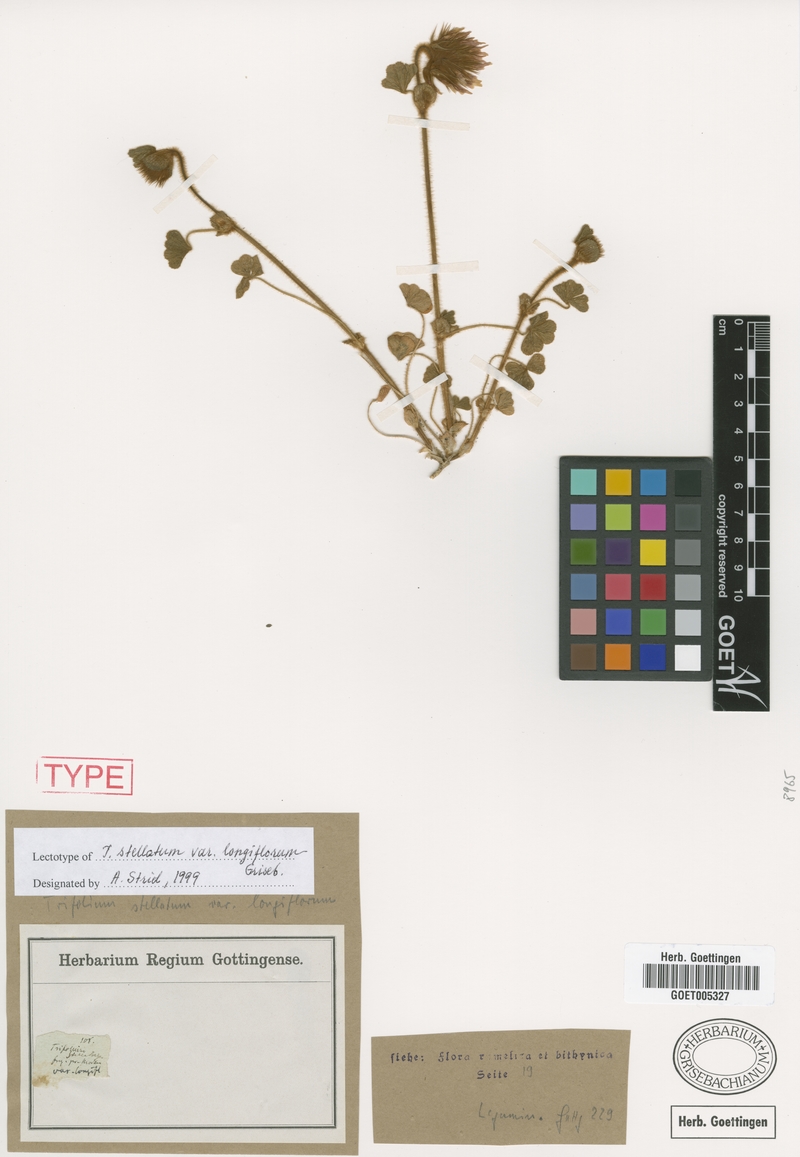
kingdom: Plantae
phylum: Tracheophyta
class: Magnoliopsida
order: Fabales
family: Fabaceae
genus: Trifolium
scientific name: Trifolium stellatum
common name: Starry clover
